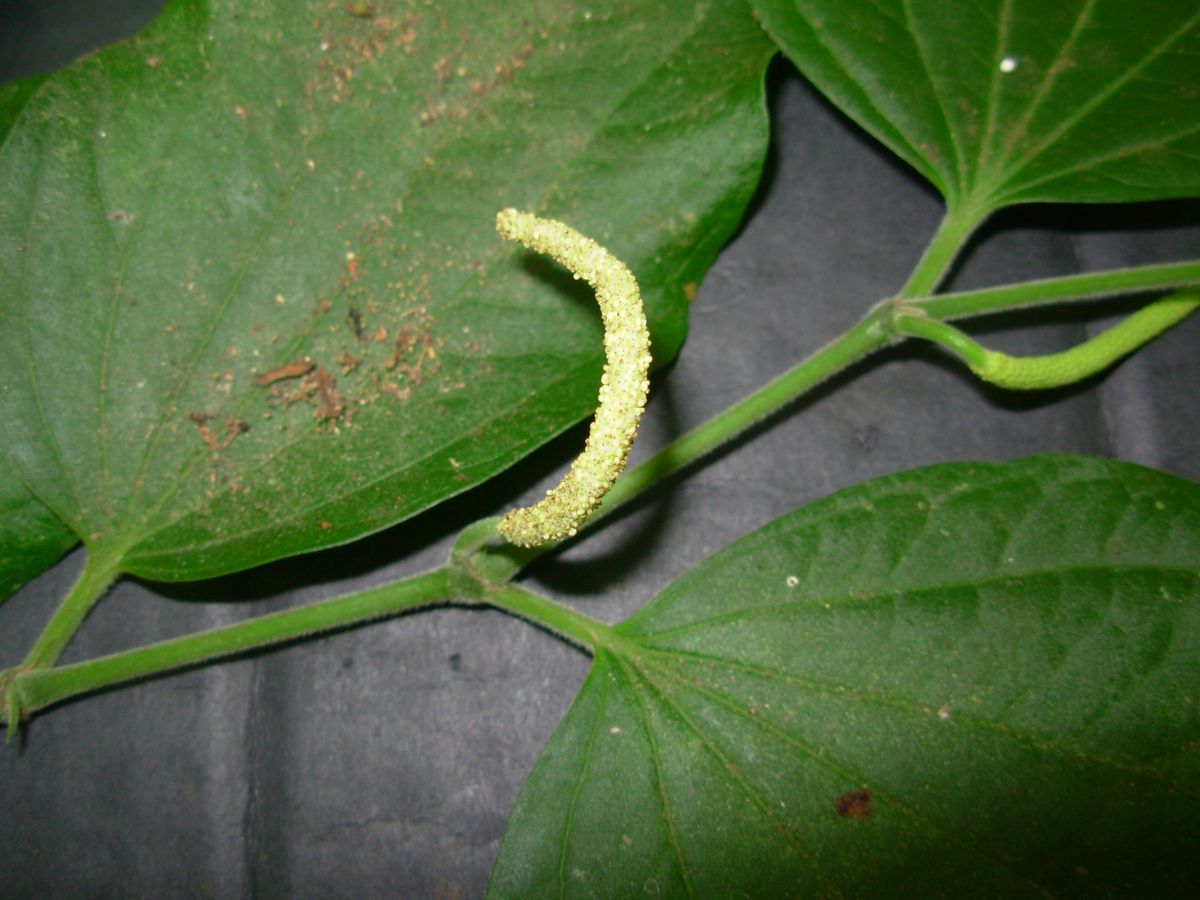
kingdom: Plantae
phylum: Tracheophyta
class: Magnoliopsida
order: Piperales
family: Piperaceae
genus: Piper
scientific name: Piper cobanense
